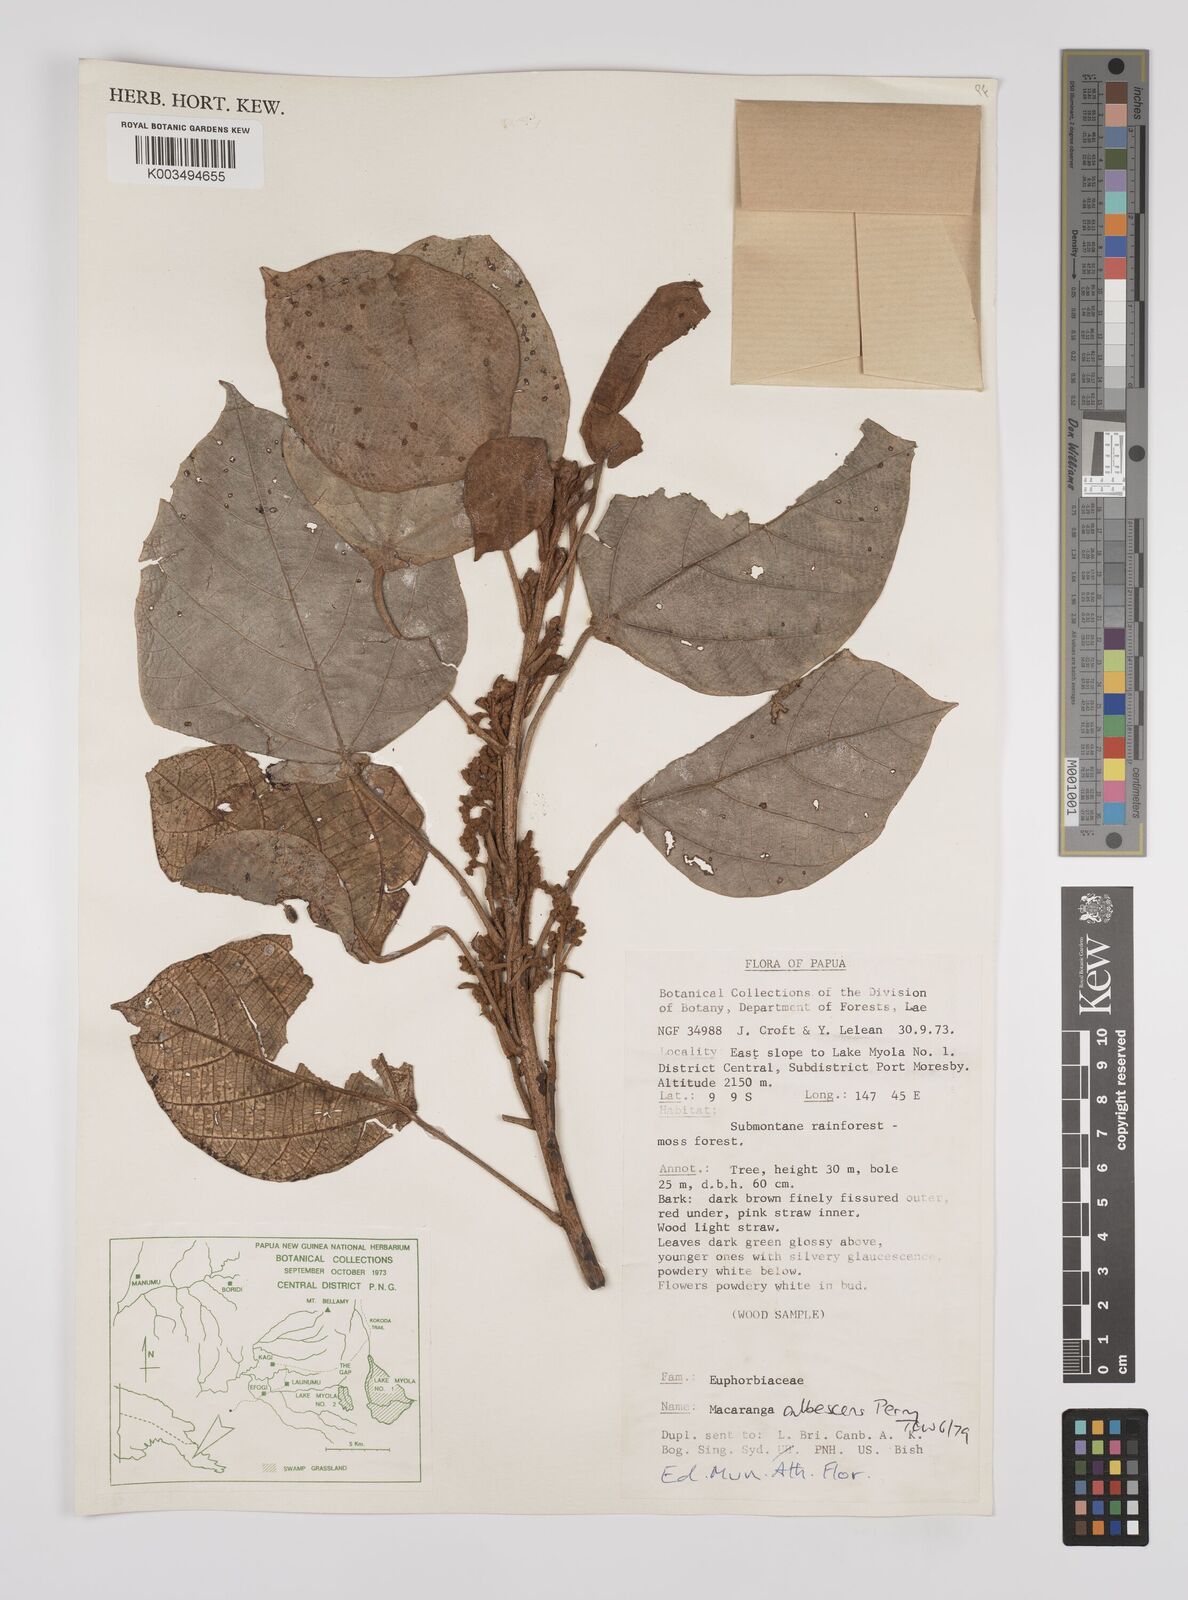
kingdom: Plantae
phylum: Tracheophyta
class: Magnoliopsida
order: Malpighiales
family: Euphorbiaceae
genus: Macaranga
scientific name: Macaranga albescens
